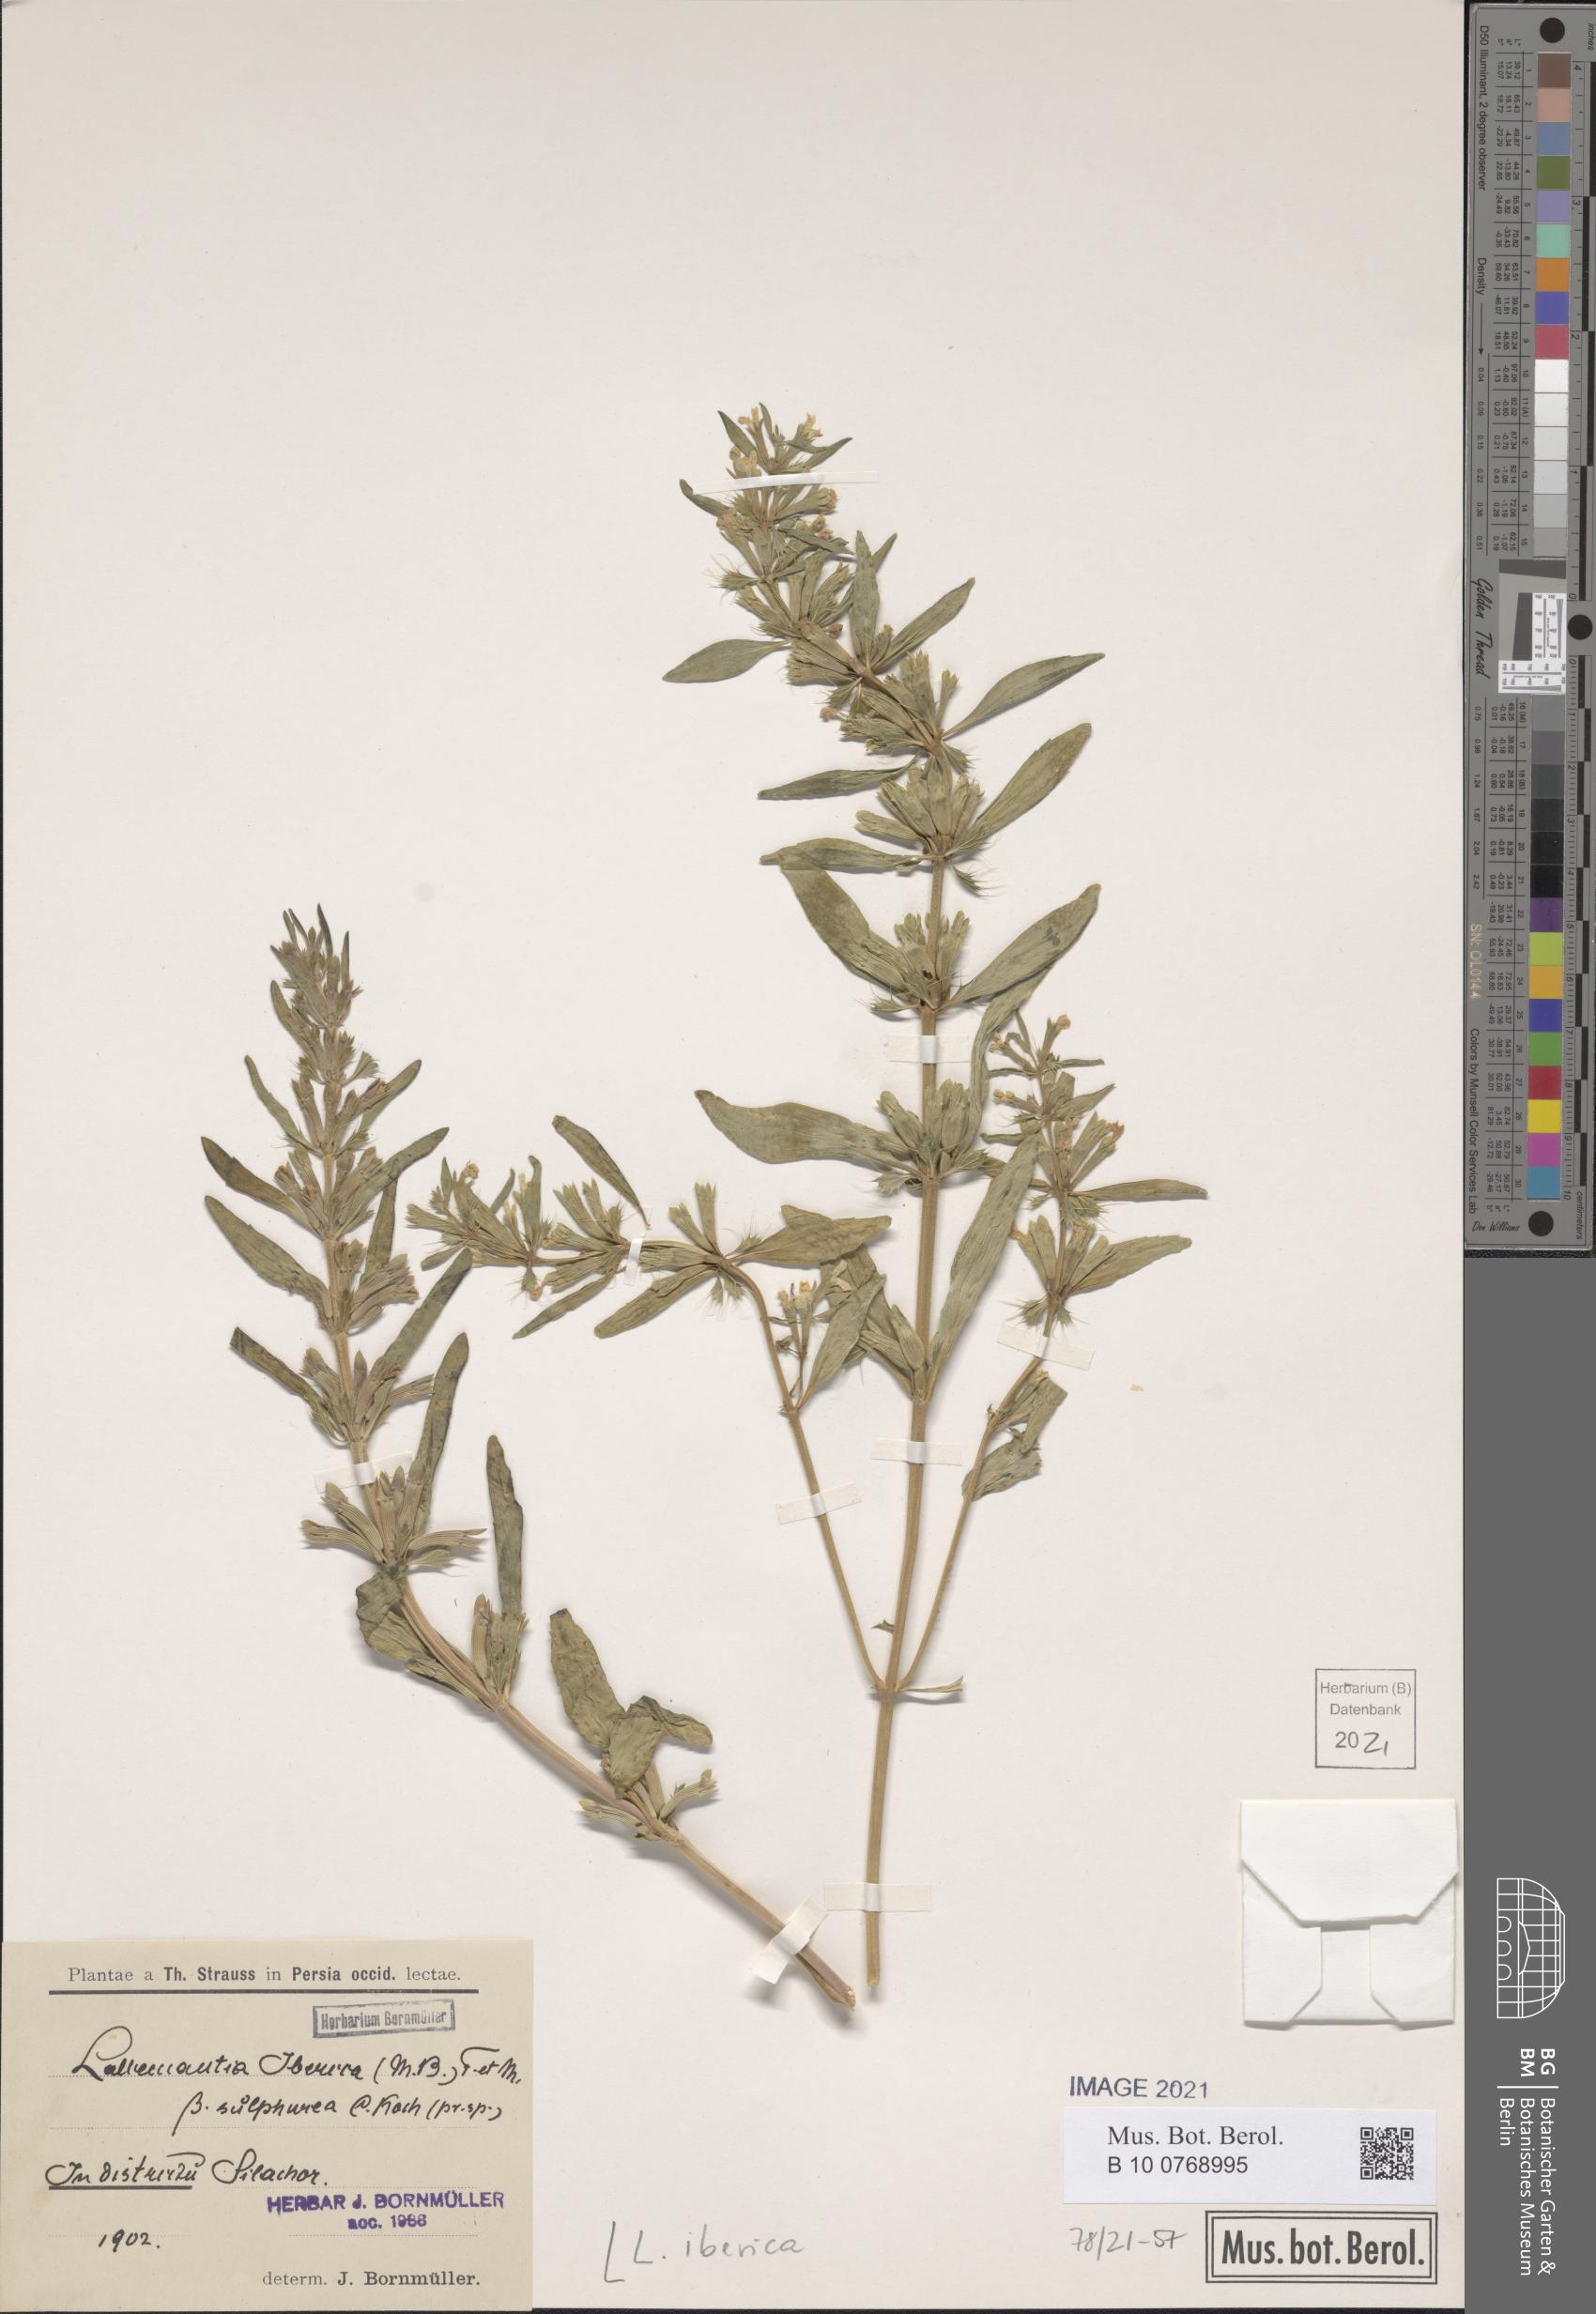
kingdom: Plantae
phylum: Tracheophyta
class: Magnoliopsida
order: Lamiales
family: Lamiaceae
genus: Lallemantia
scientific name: Lallemantia iberica
